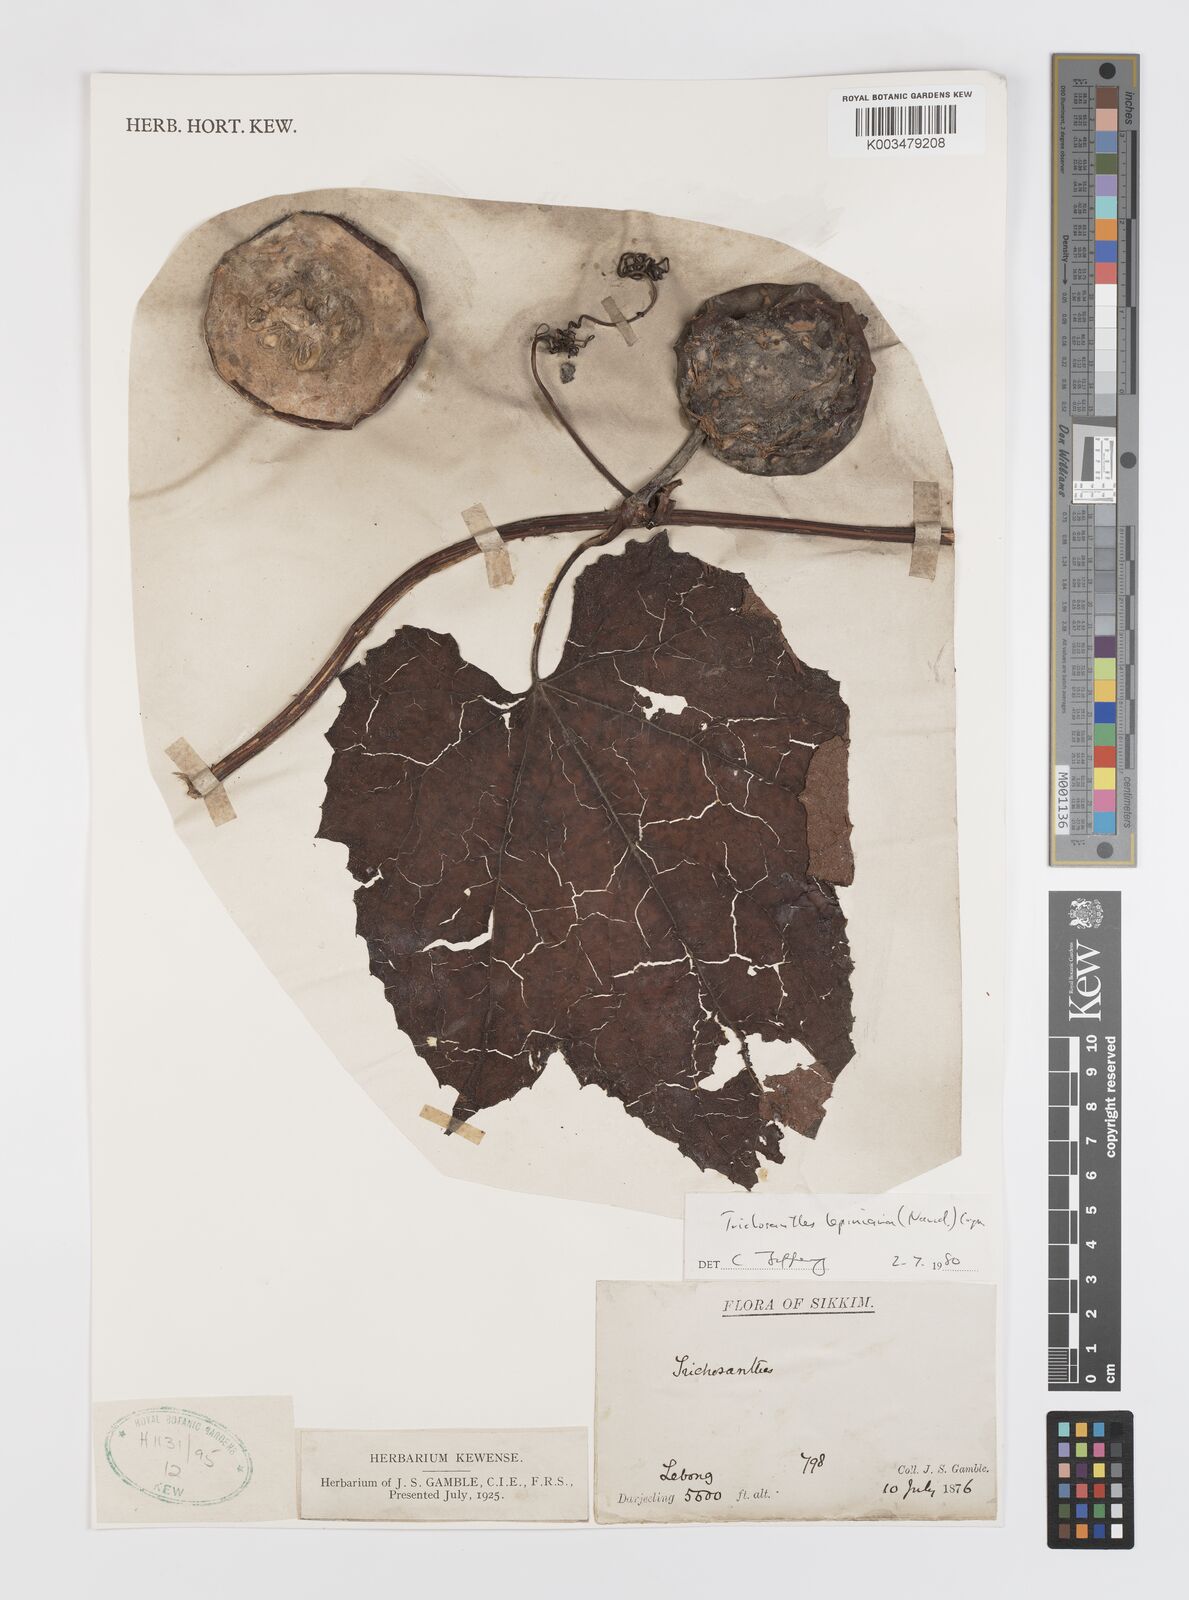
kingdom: Plantae
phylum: Tracheophyta
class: Magnoliopsida
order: Cucurbitales
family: Cucurbitaceae
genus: Trichosanthes
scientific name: Trichosanthes tricuspidata
